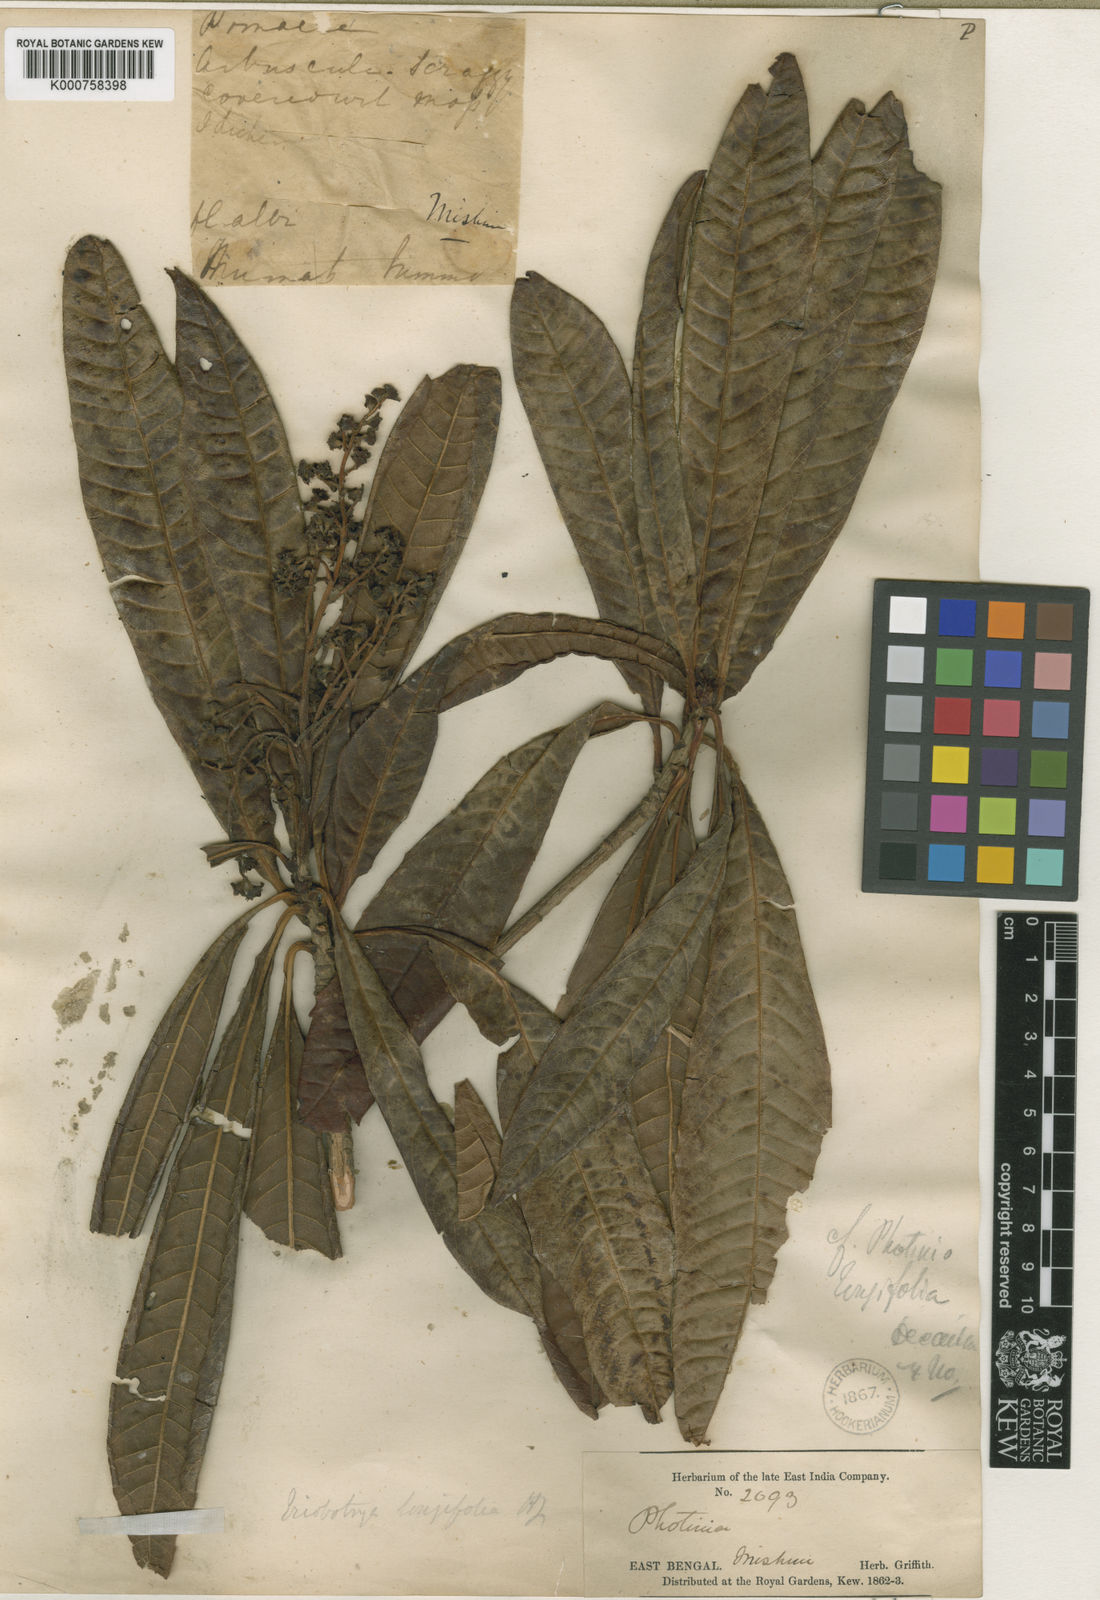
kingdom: Plantae
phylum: Tracheophyta
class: Magnoliopsida
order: Rosales
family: Rosaceae
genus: Rhaphiolepis
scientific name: Rhaphiolepis
